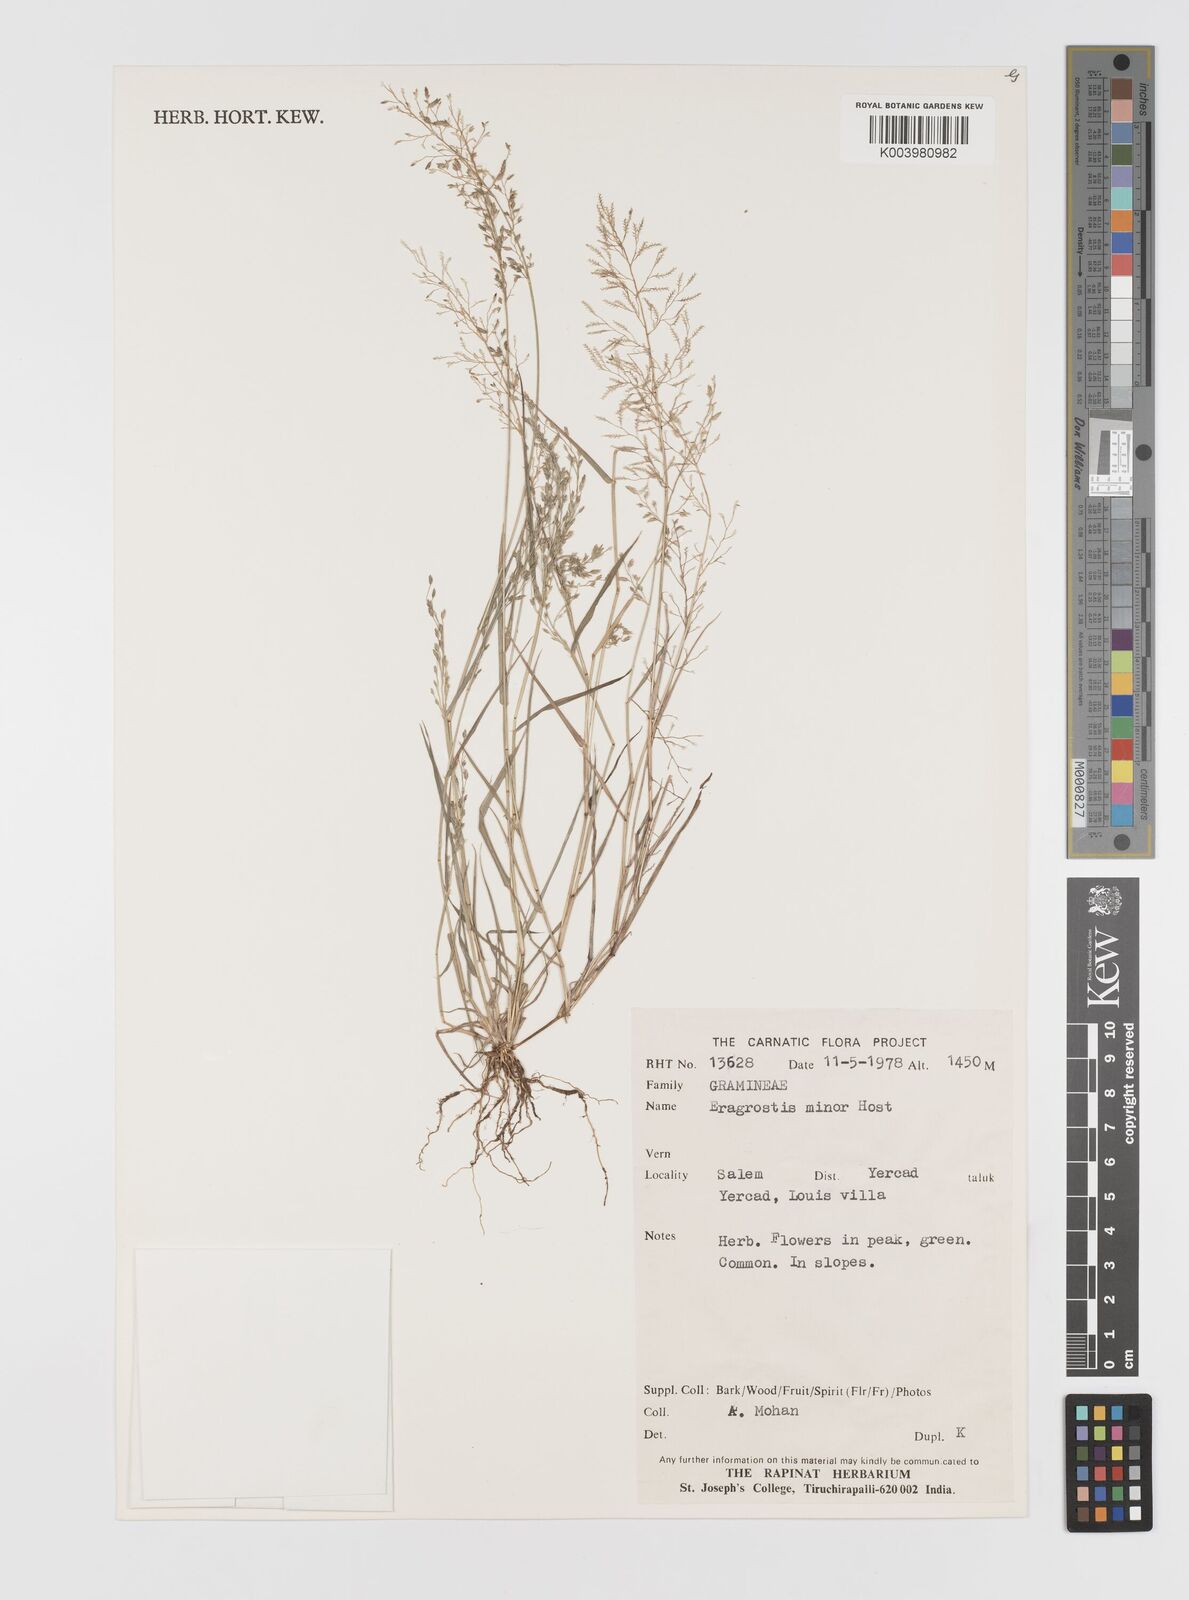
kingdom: Plantae
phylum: Tracheophyta
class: Liliopsida
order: Poales
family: Poaceae
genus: Eragrostis
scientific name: Eragrostis minor
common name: Small love-grass
